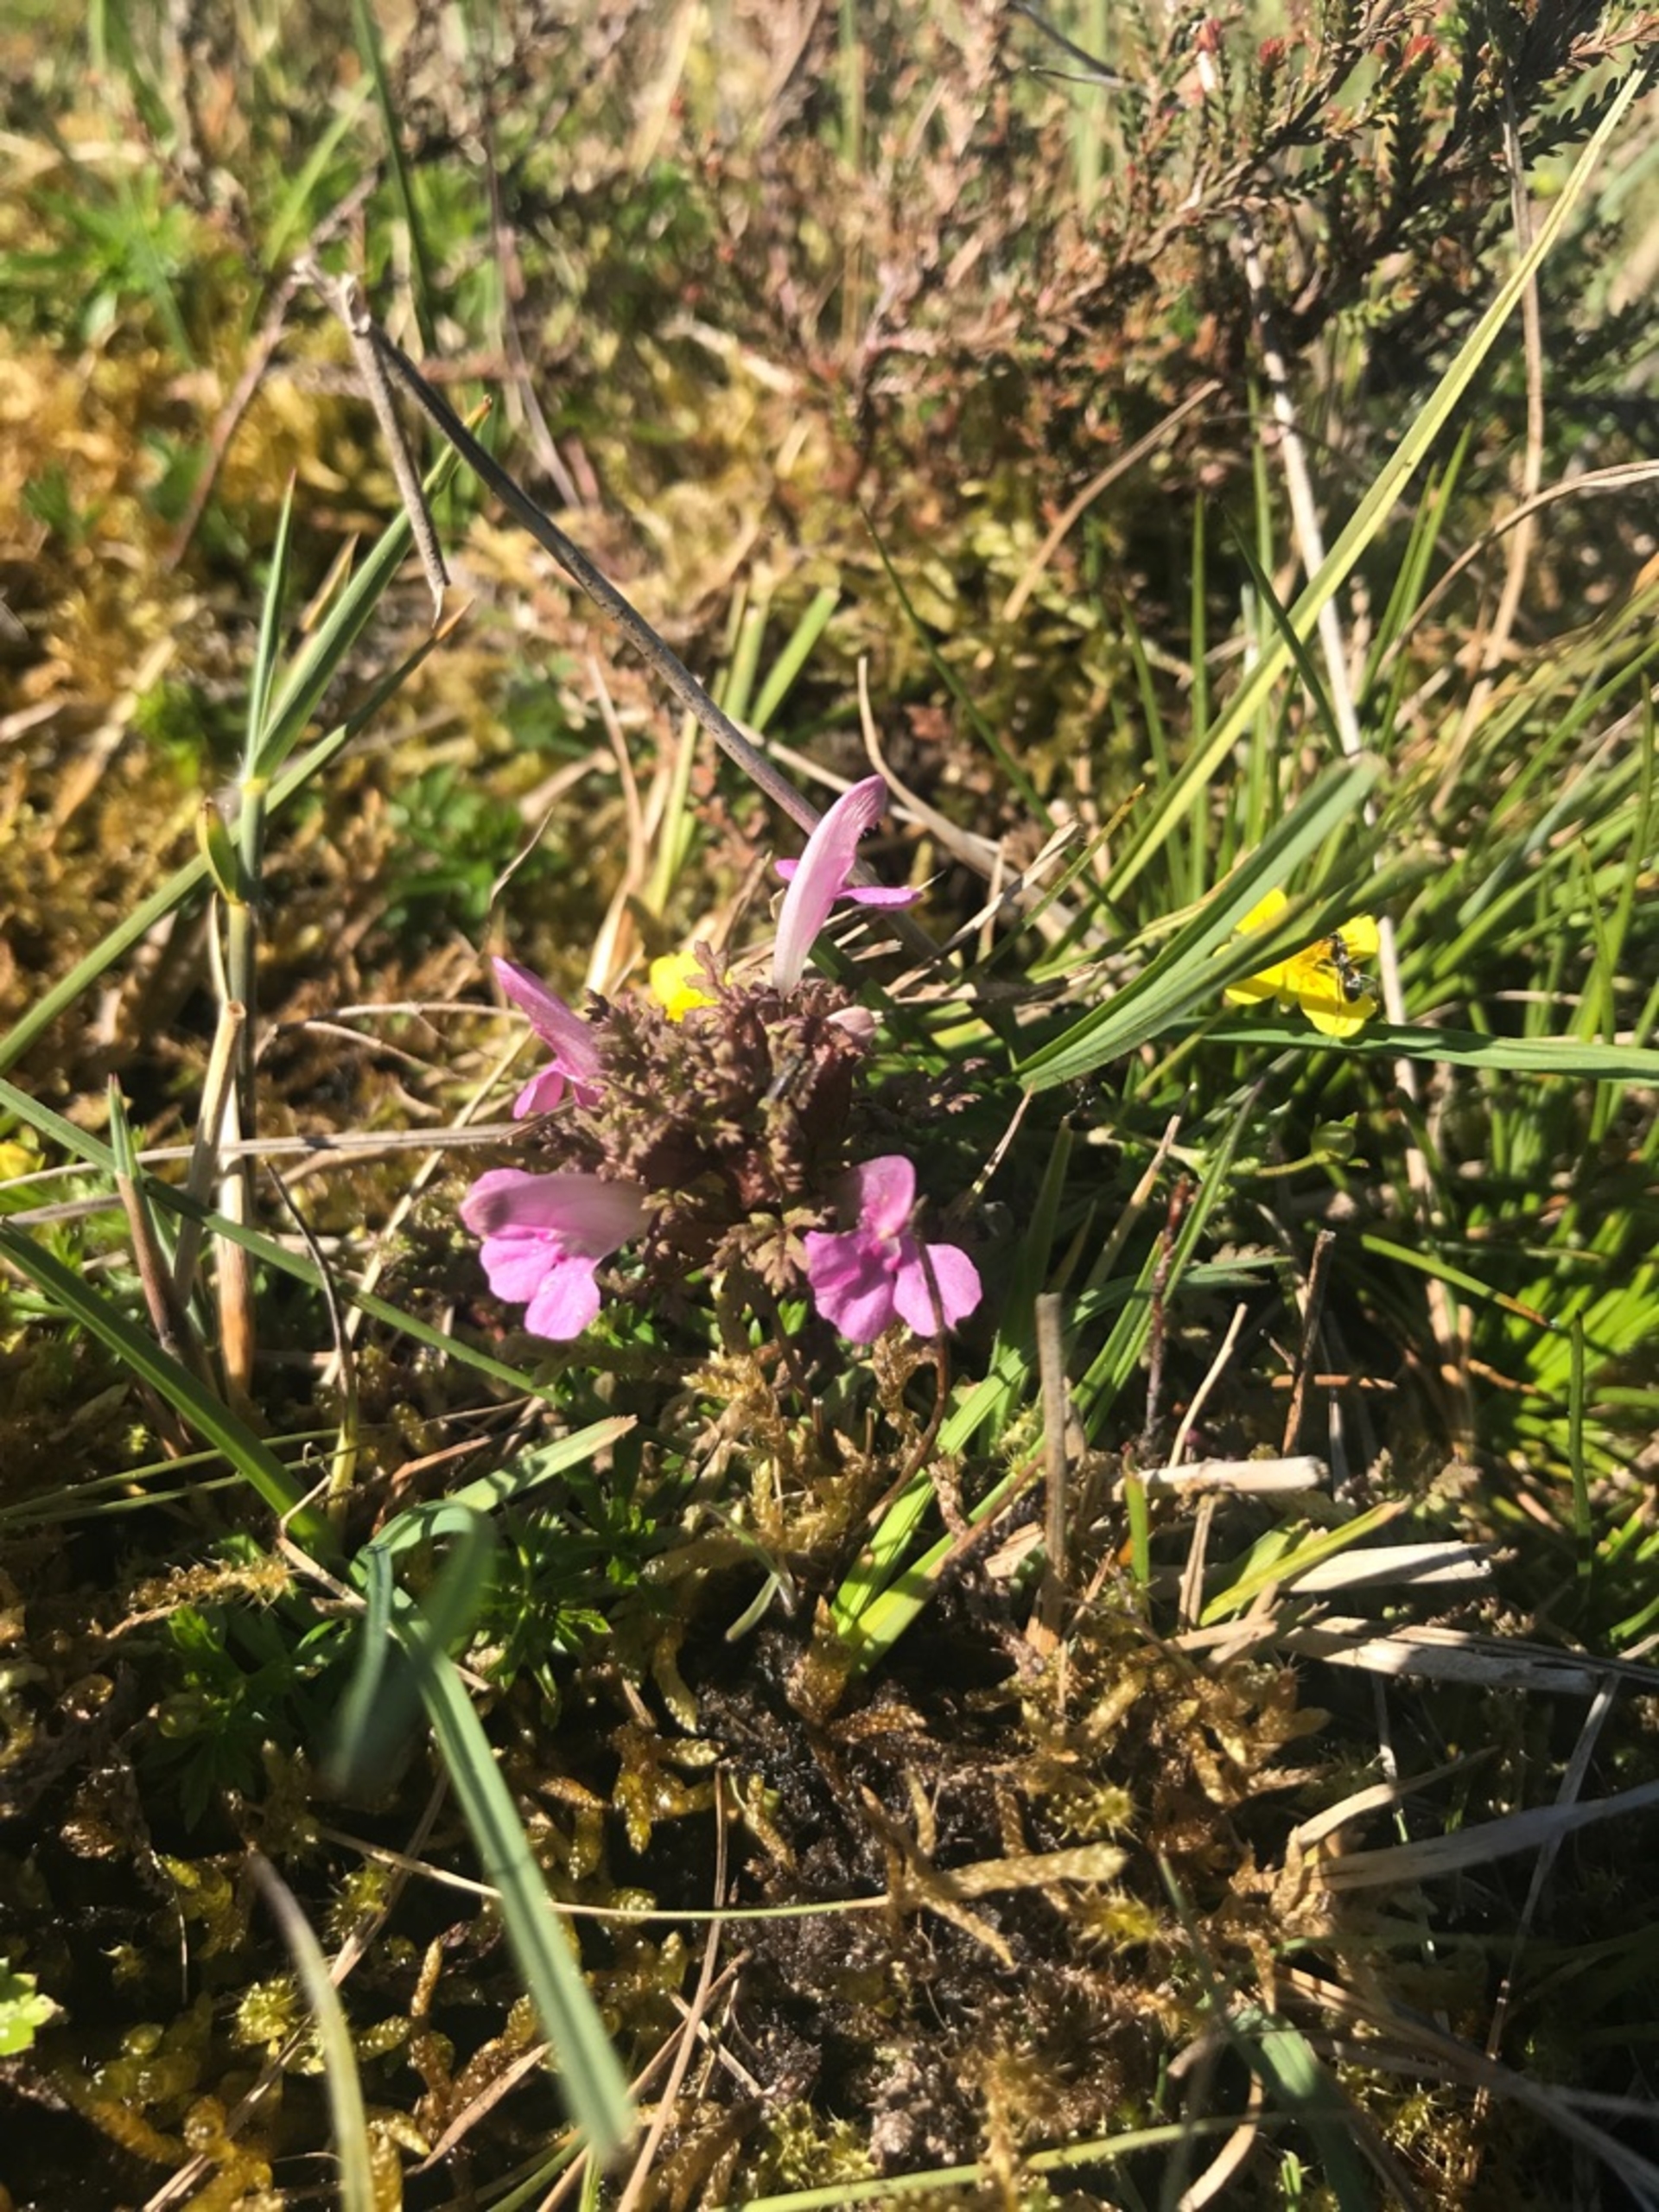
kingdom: Plantae
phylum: Tracheophyta
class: Magnoliopsida
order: Lamiales
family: Orobanchaceae
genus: Pedicularis
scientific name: Pedicularis sylvatica
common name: Mose-troldurt
